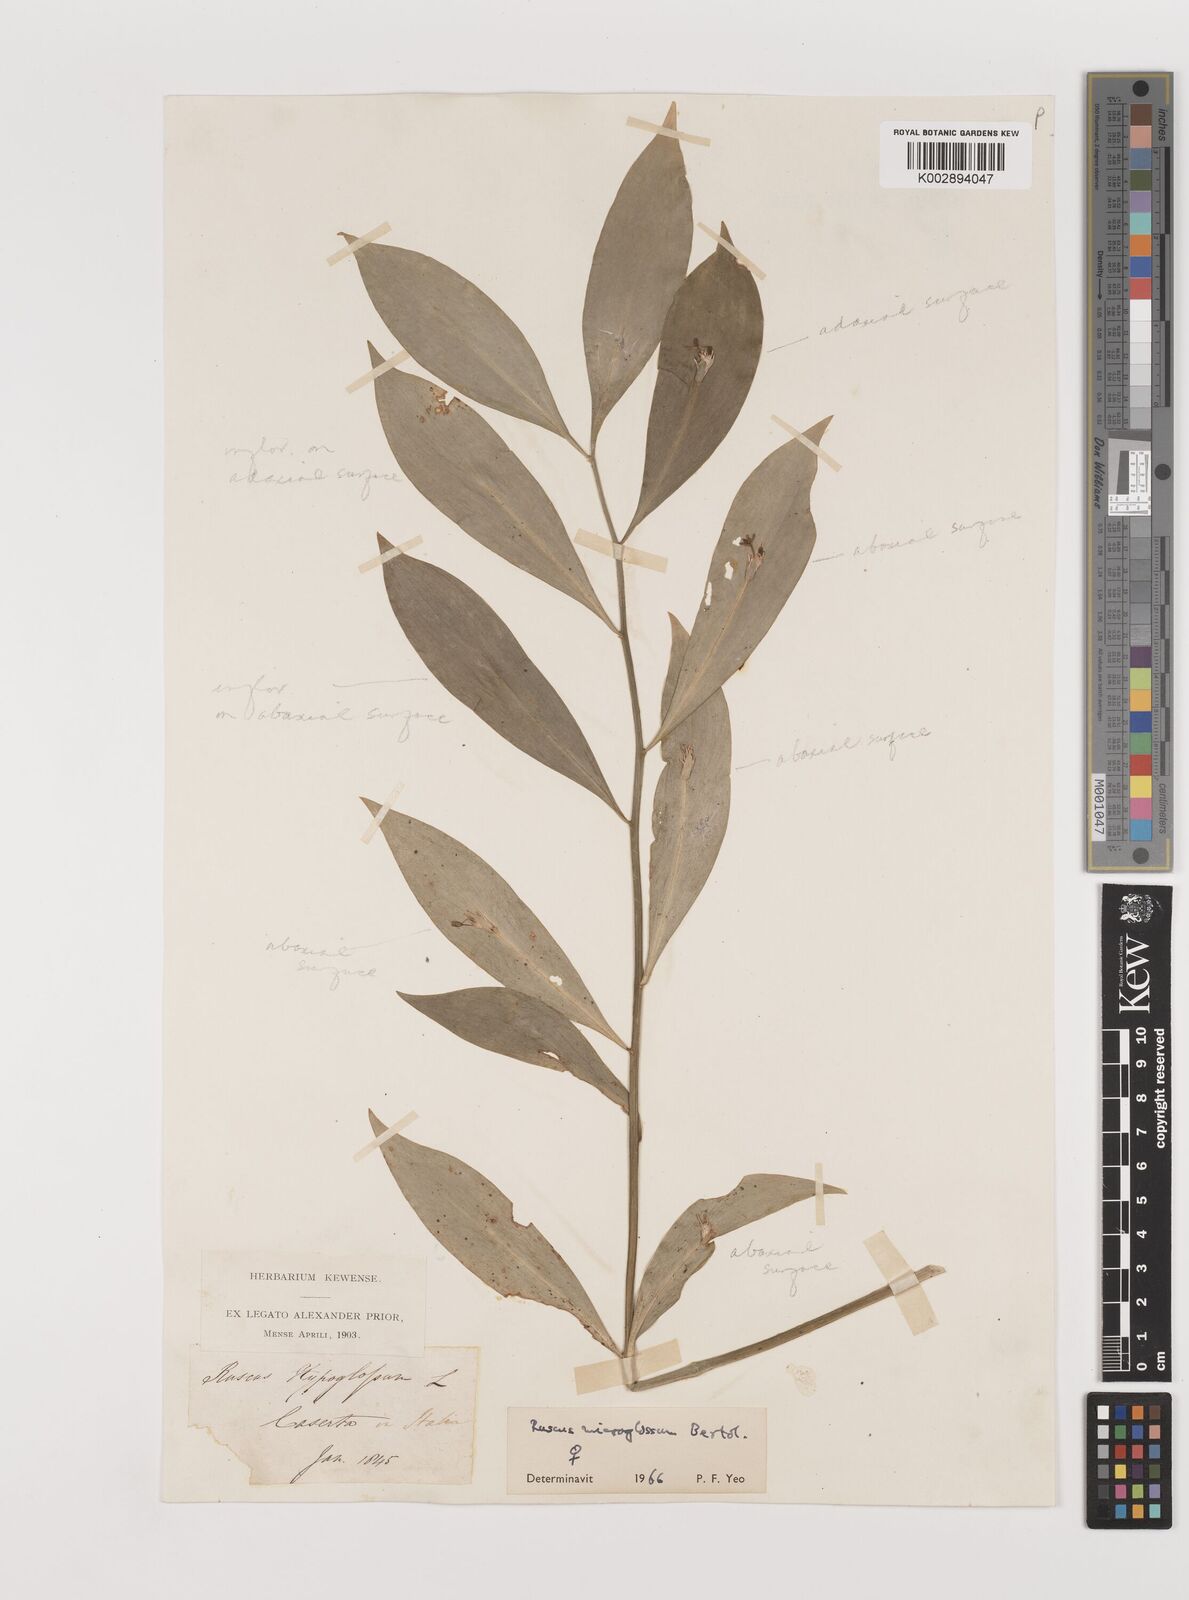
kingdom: Plantae
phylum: Tracheophyta
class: Liliopsida
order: Asparagales
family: Asparagaceae
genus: Ruscus
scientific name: Ruscus microglossus
